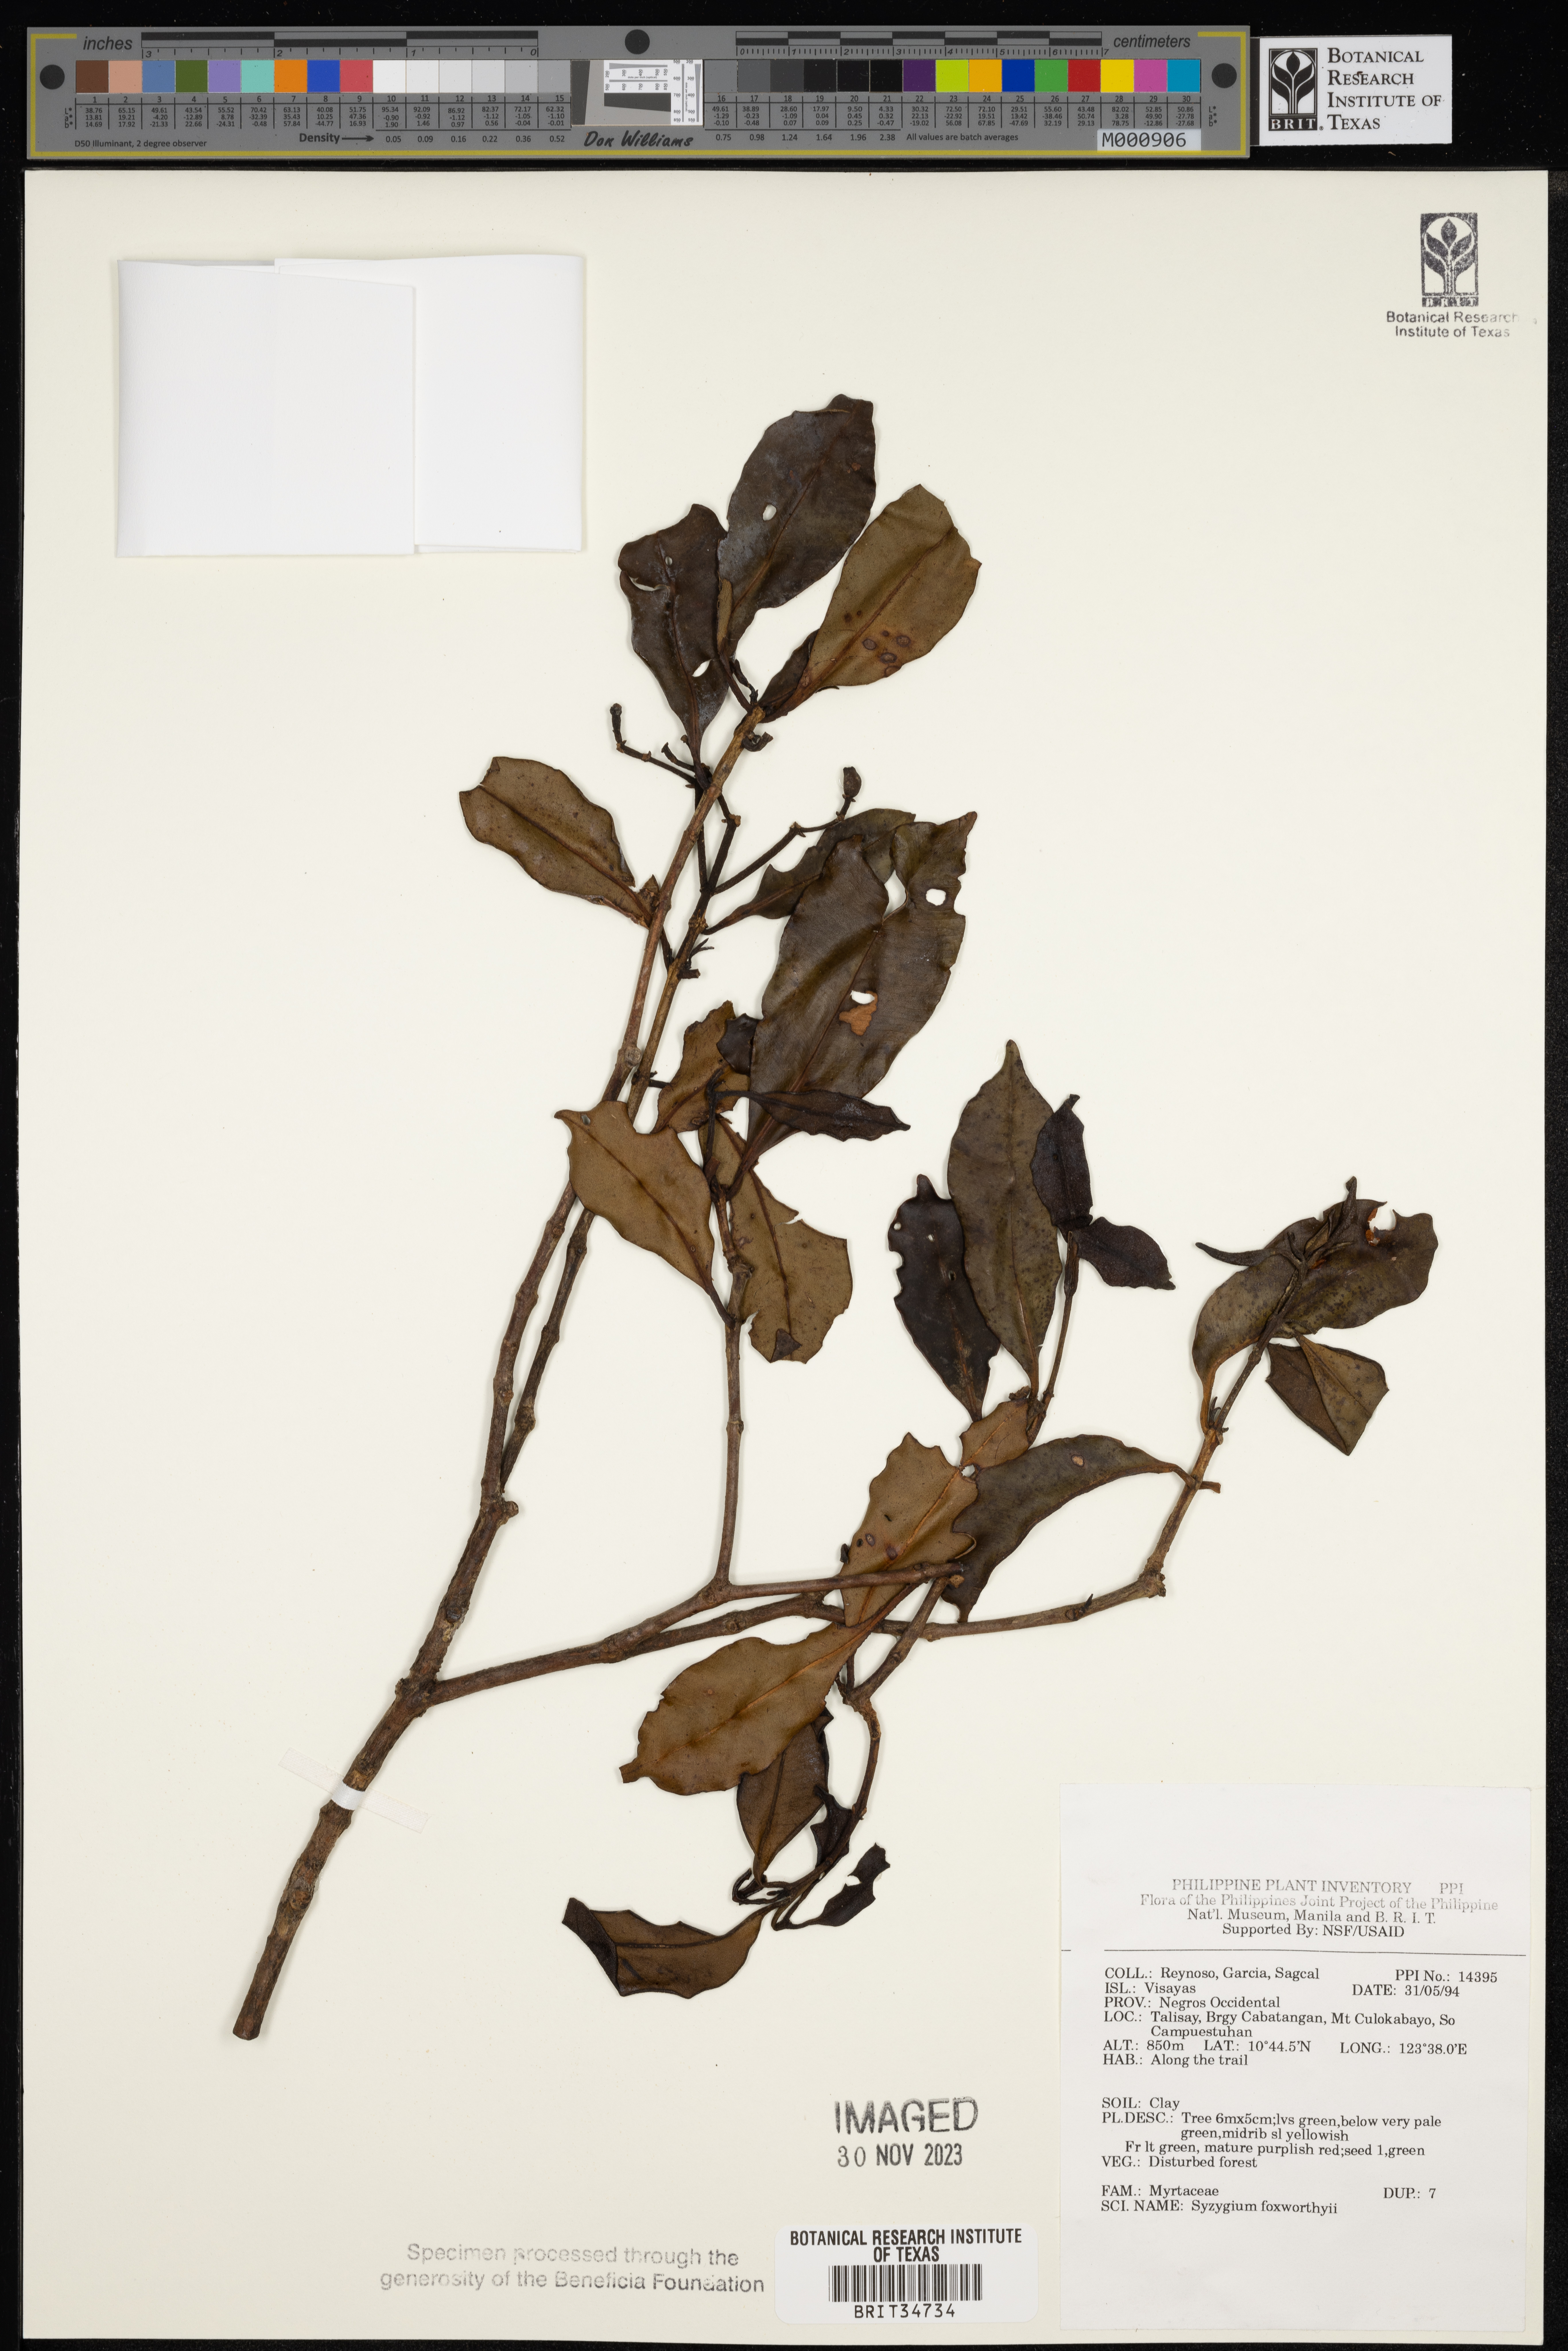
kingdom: Plantae
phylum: Tracheophyta
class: Magnoliopsida
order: Myrtales
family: Myrtaceae
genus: Syzygium
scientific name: Syzygium foxworthyi
